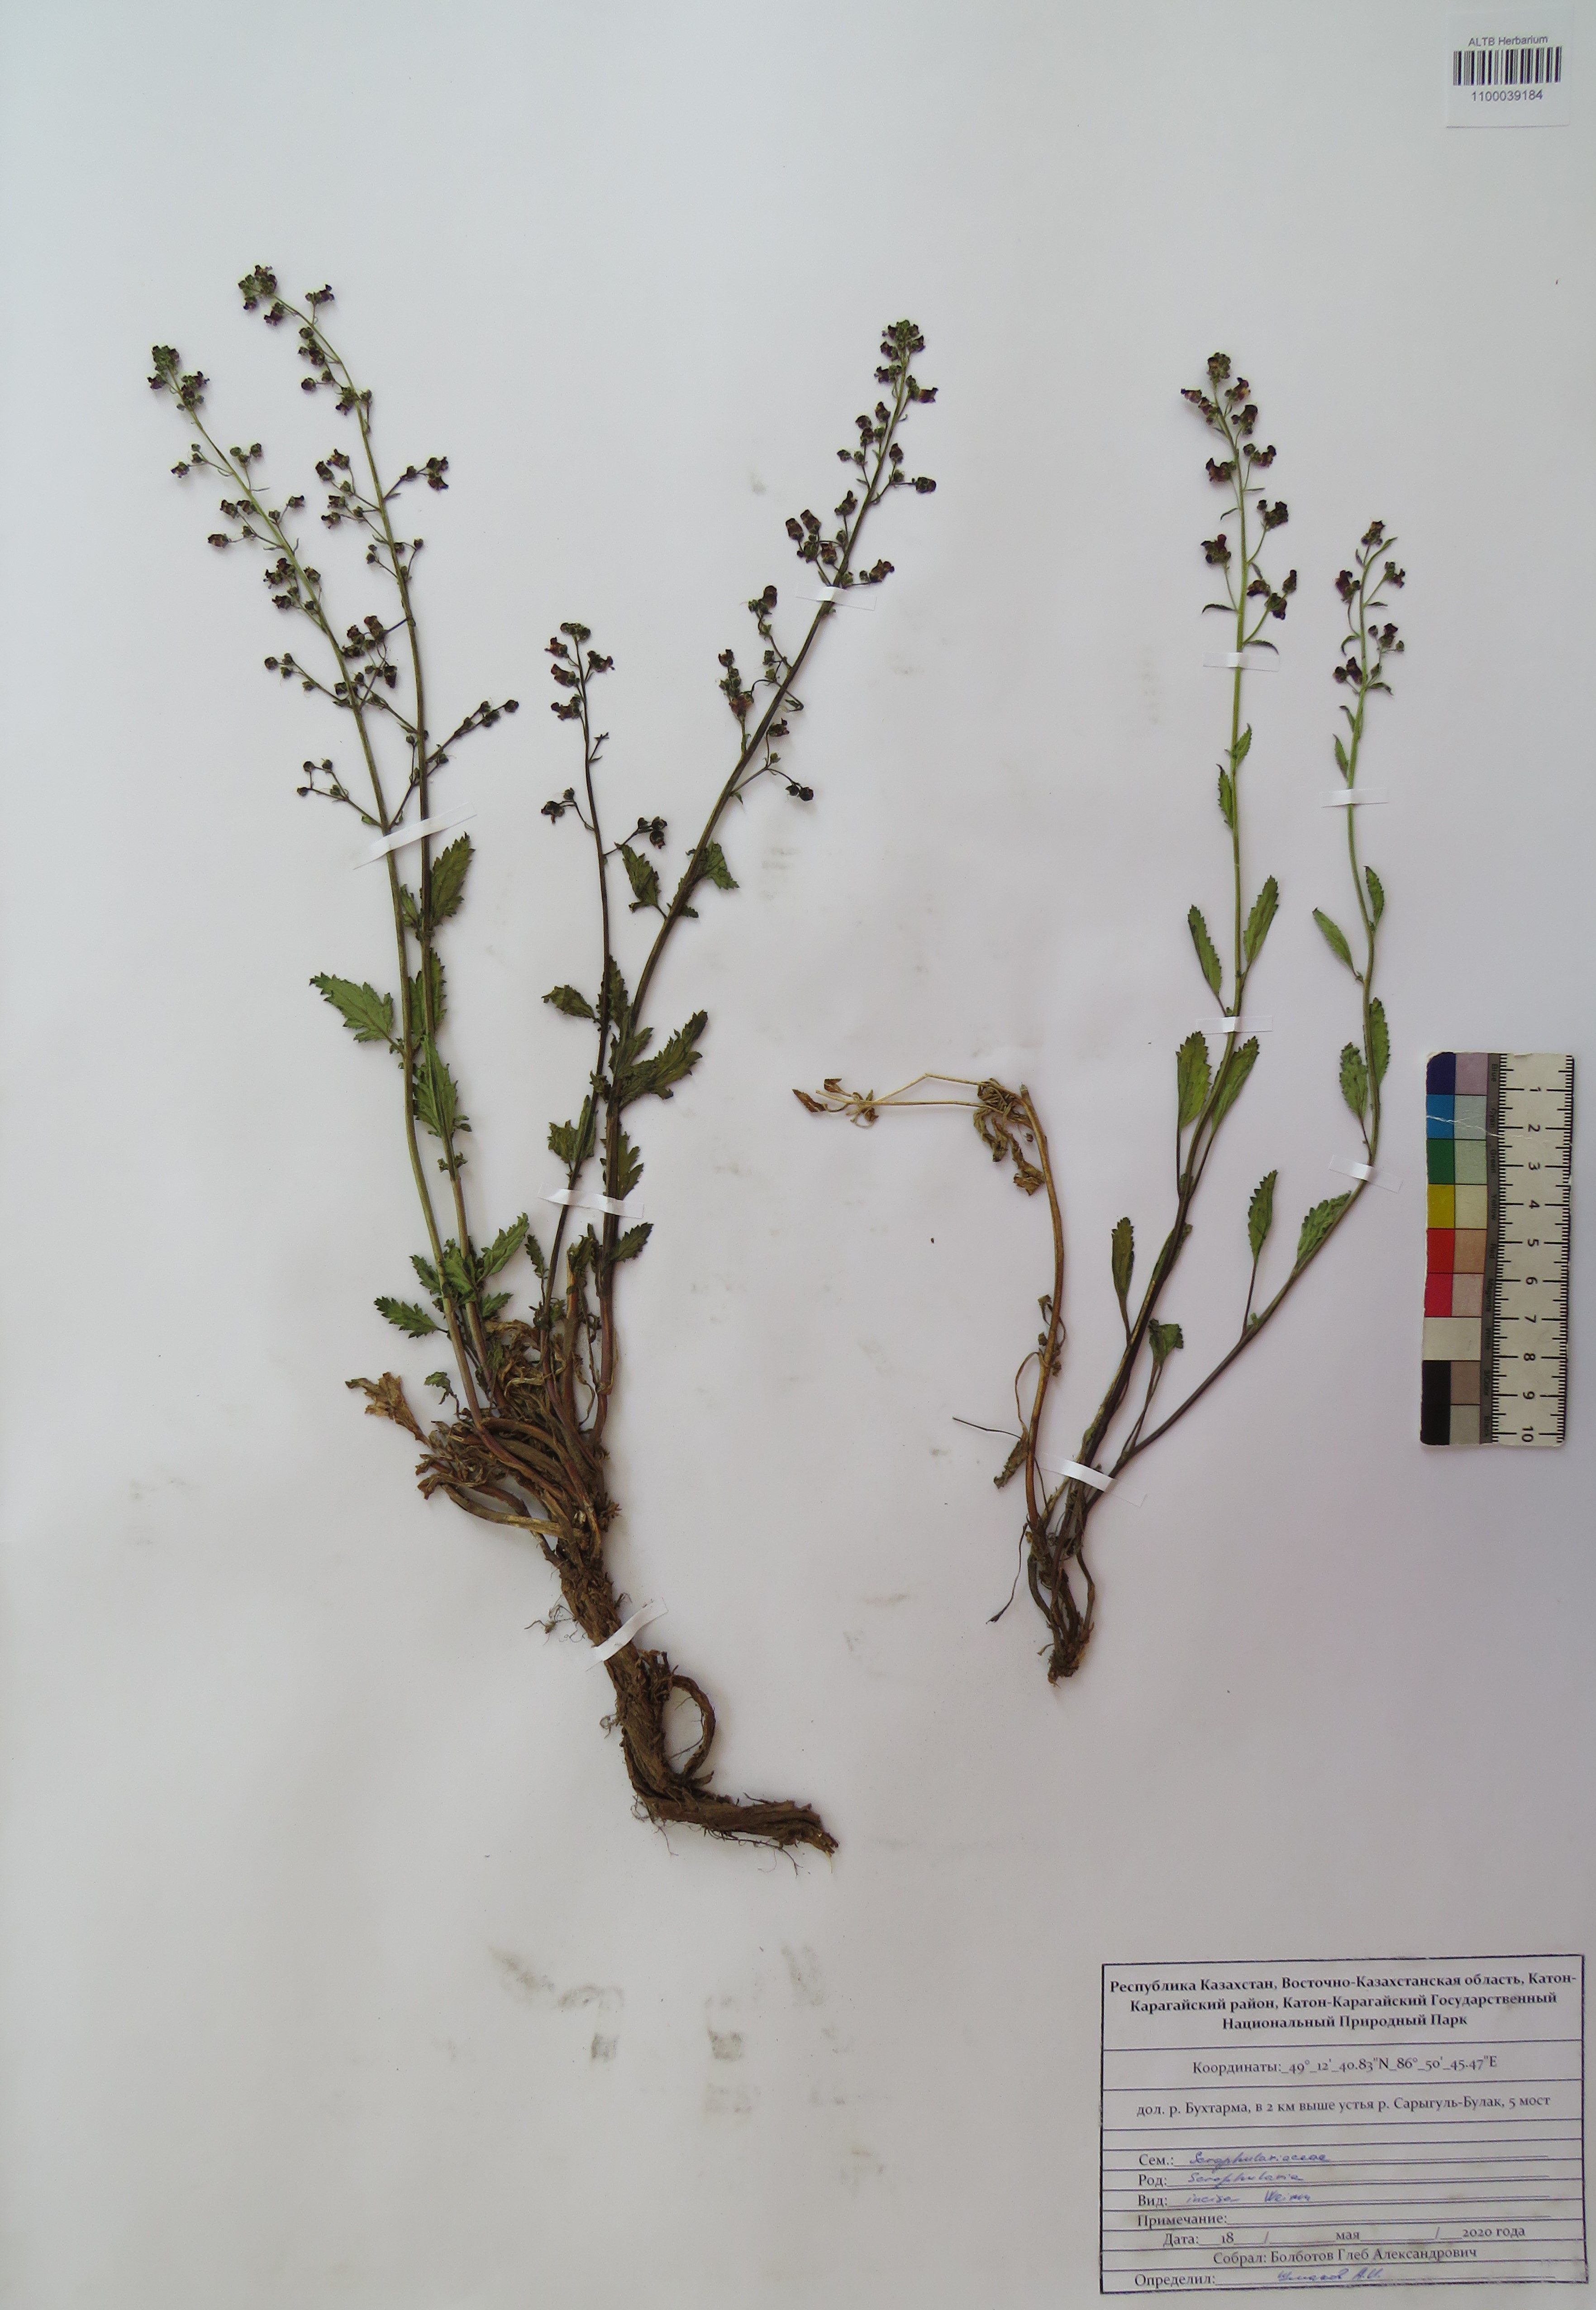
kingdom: Plantae
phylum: Tracheophyta
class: Magnoliopsida
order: Lamiales
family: Scrophulariaceae
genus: Scrophularia
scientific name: Scrophularia incisa
